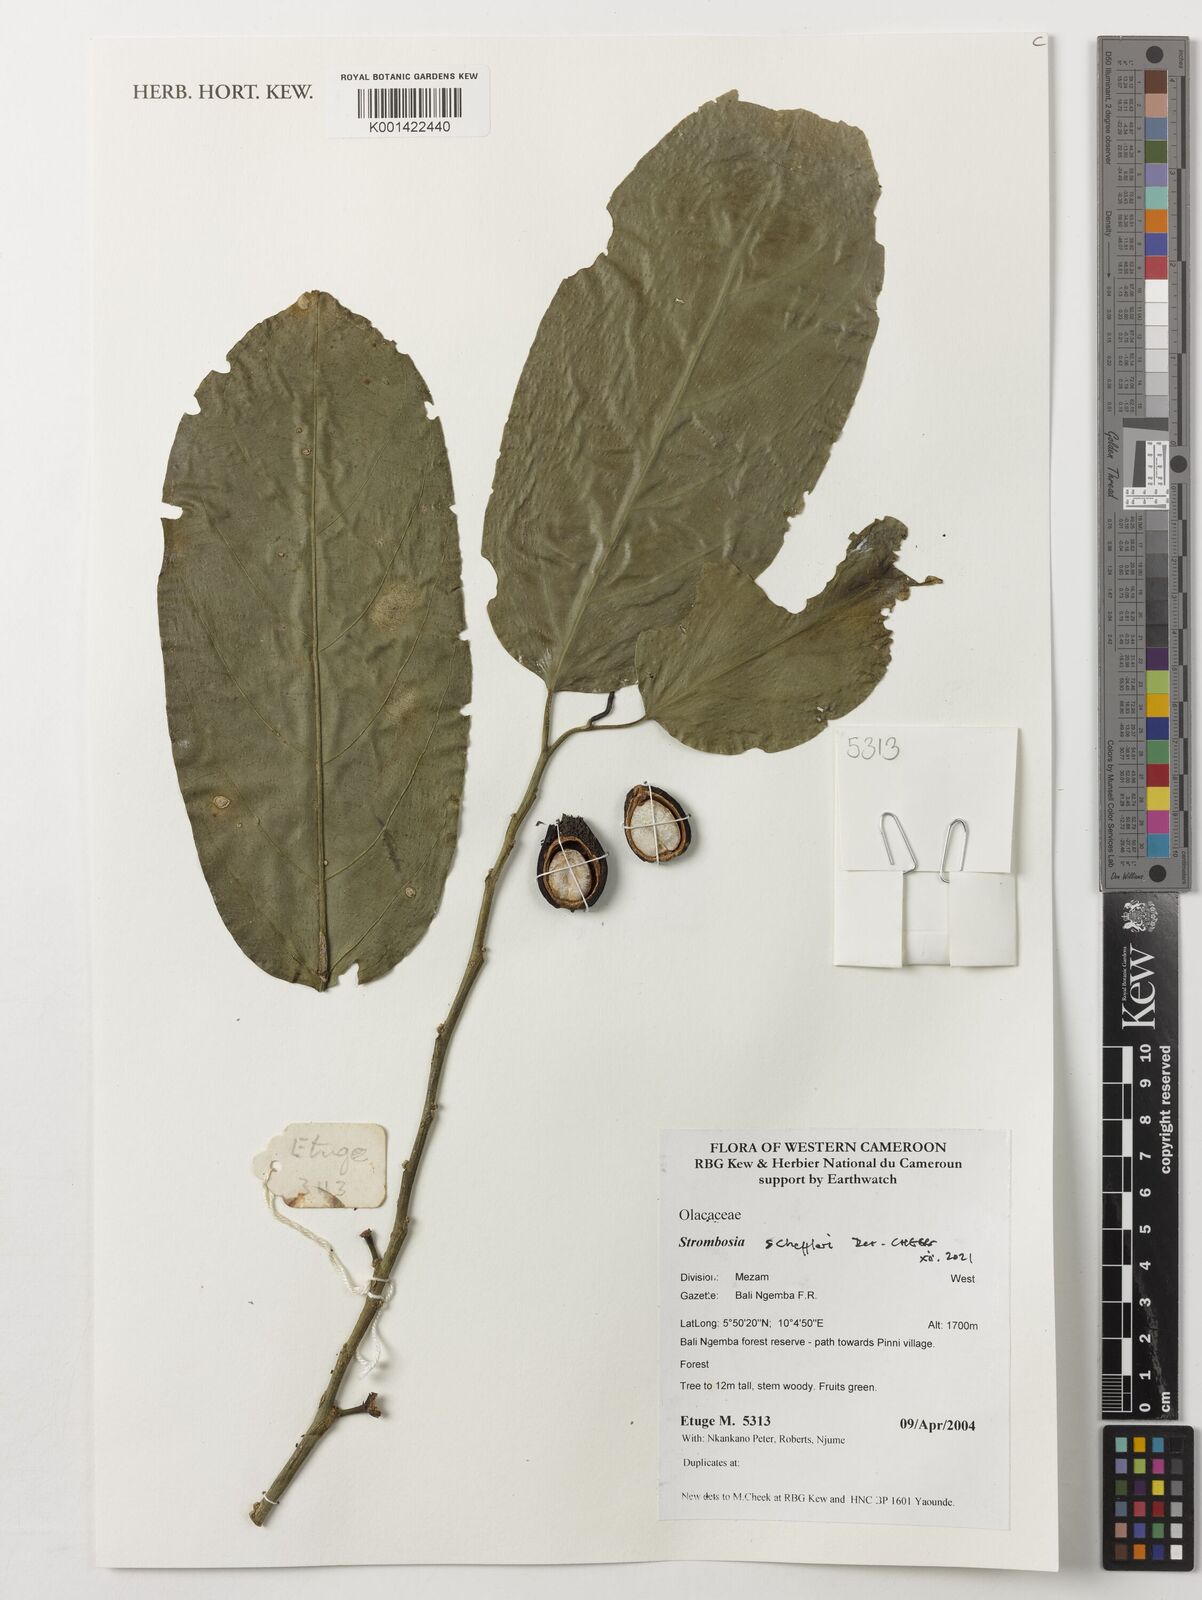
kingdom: Plantae
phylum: Tracheophyta
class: Magnoliopsida
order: Santalales
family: Strombosiaceae
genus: Strombosia
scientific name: Strombosia scheffleri
